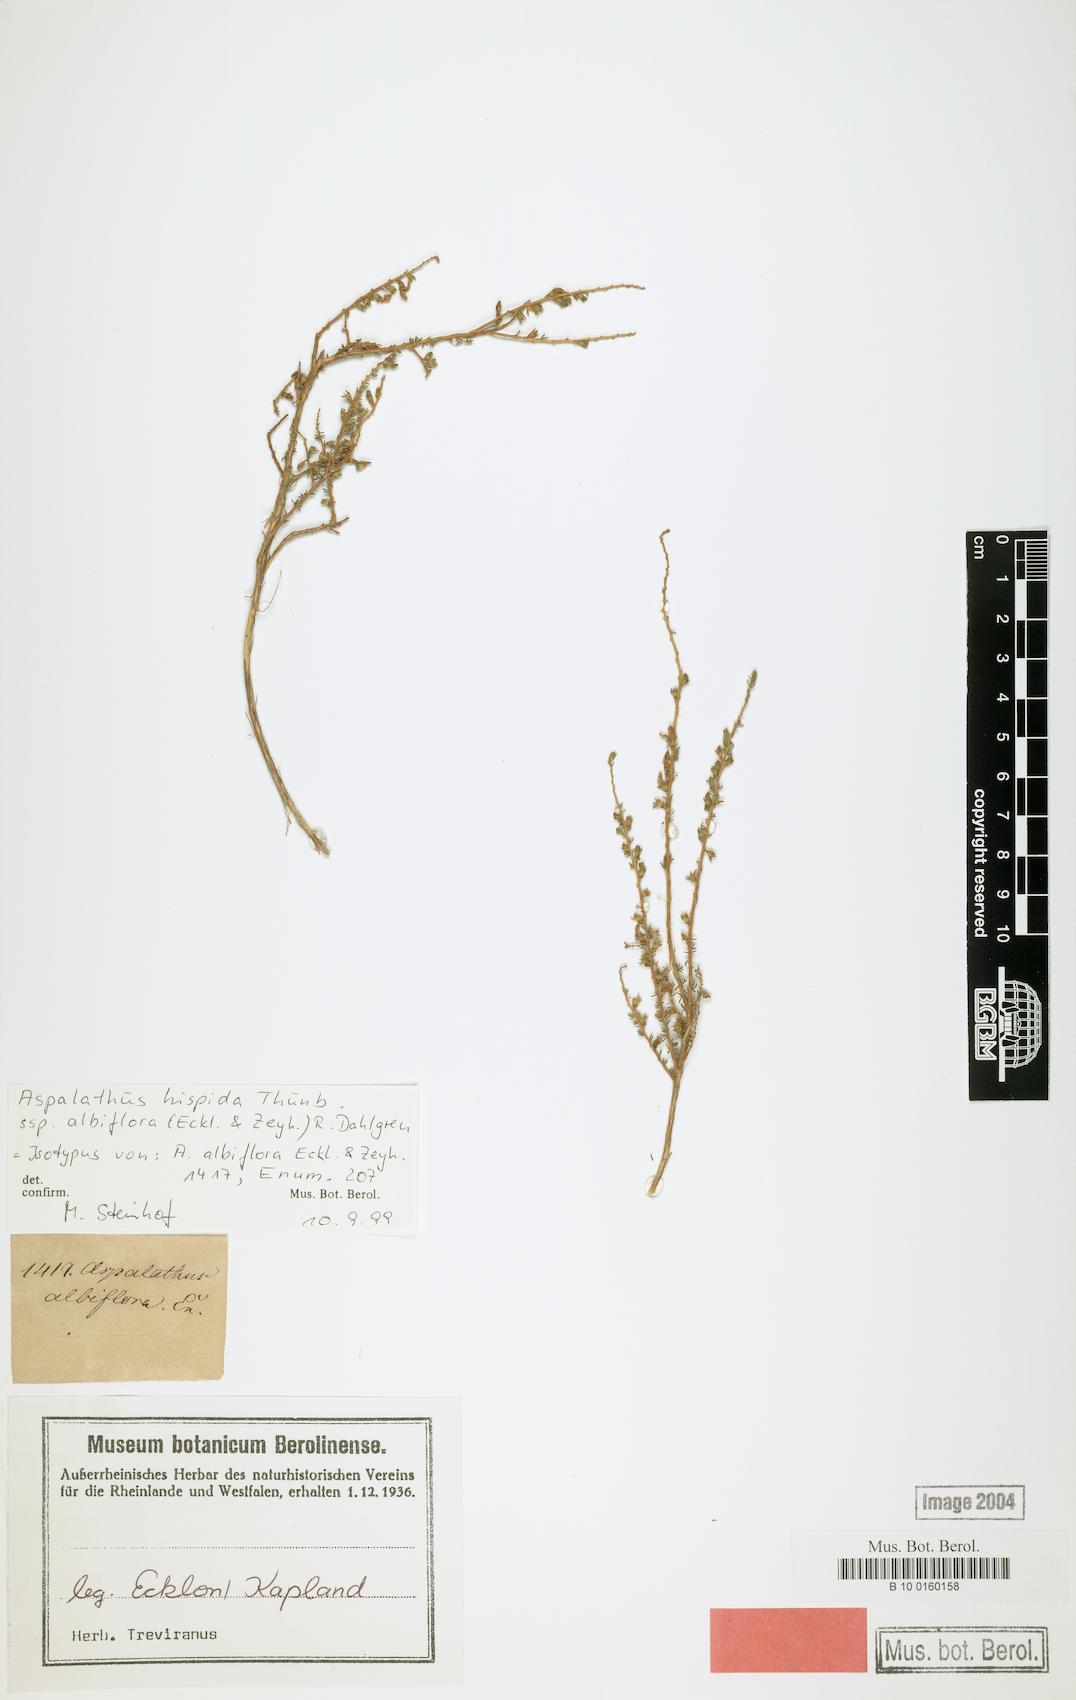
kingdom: Plantae
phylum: Tracheophyta
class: Magnoliopsida
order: Fabales
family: Fabaceae
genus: Aspalathus
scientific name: Aspalathus hispida
